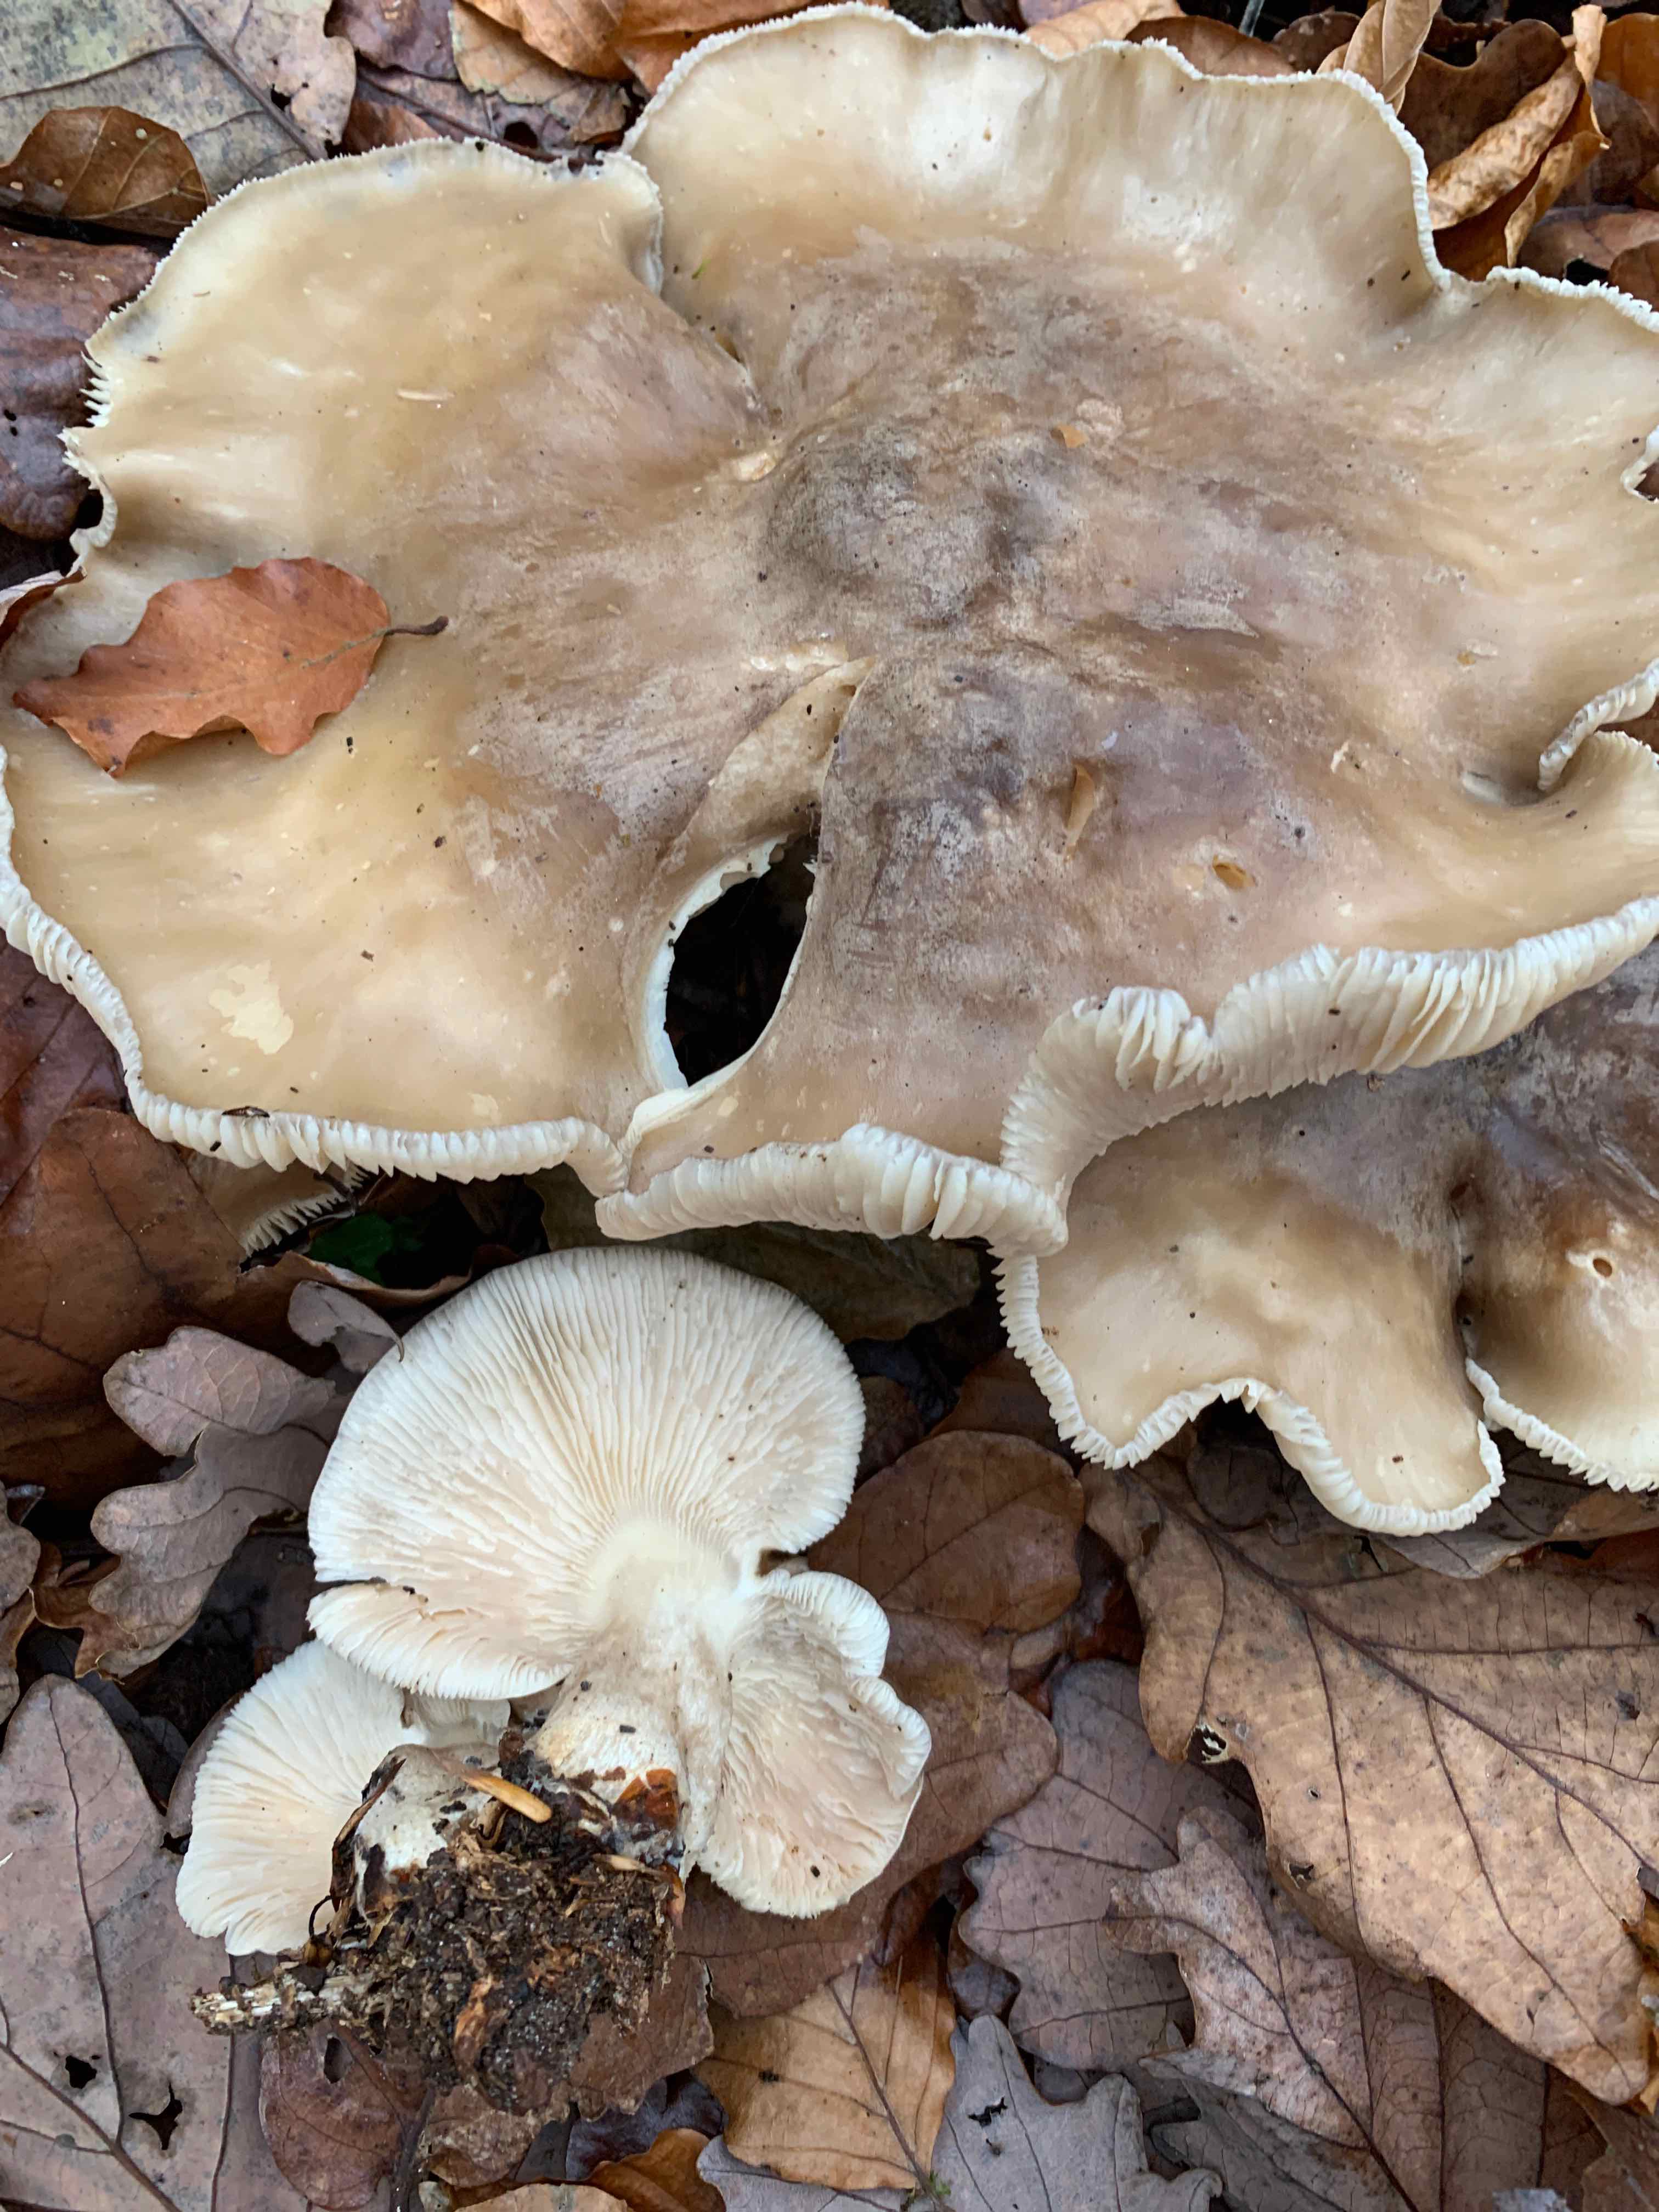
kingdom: Fungi
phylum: Basidiomycota
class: Agaricomycetes
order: Agaricales
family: Tricholomataceae
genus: Clitocybe
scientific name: Clitocybe nebularis
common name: tåge-tragthat
